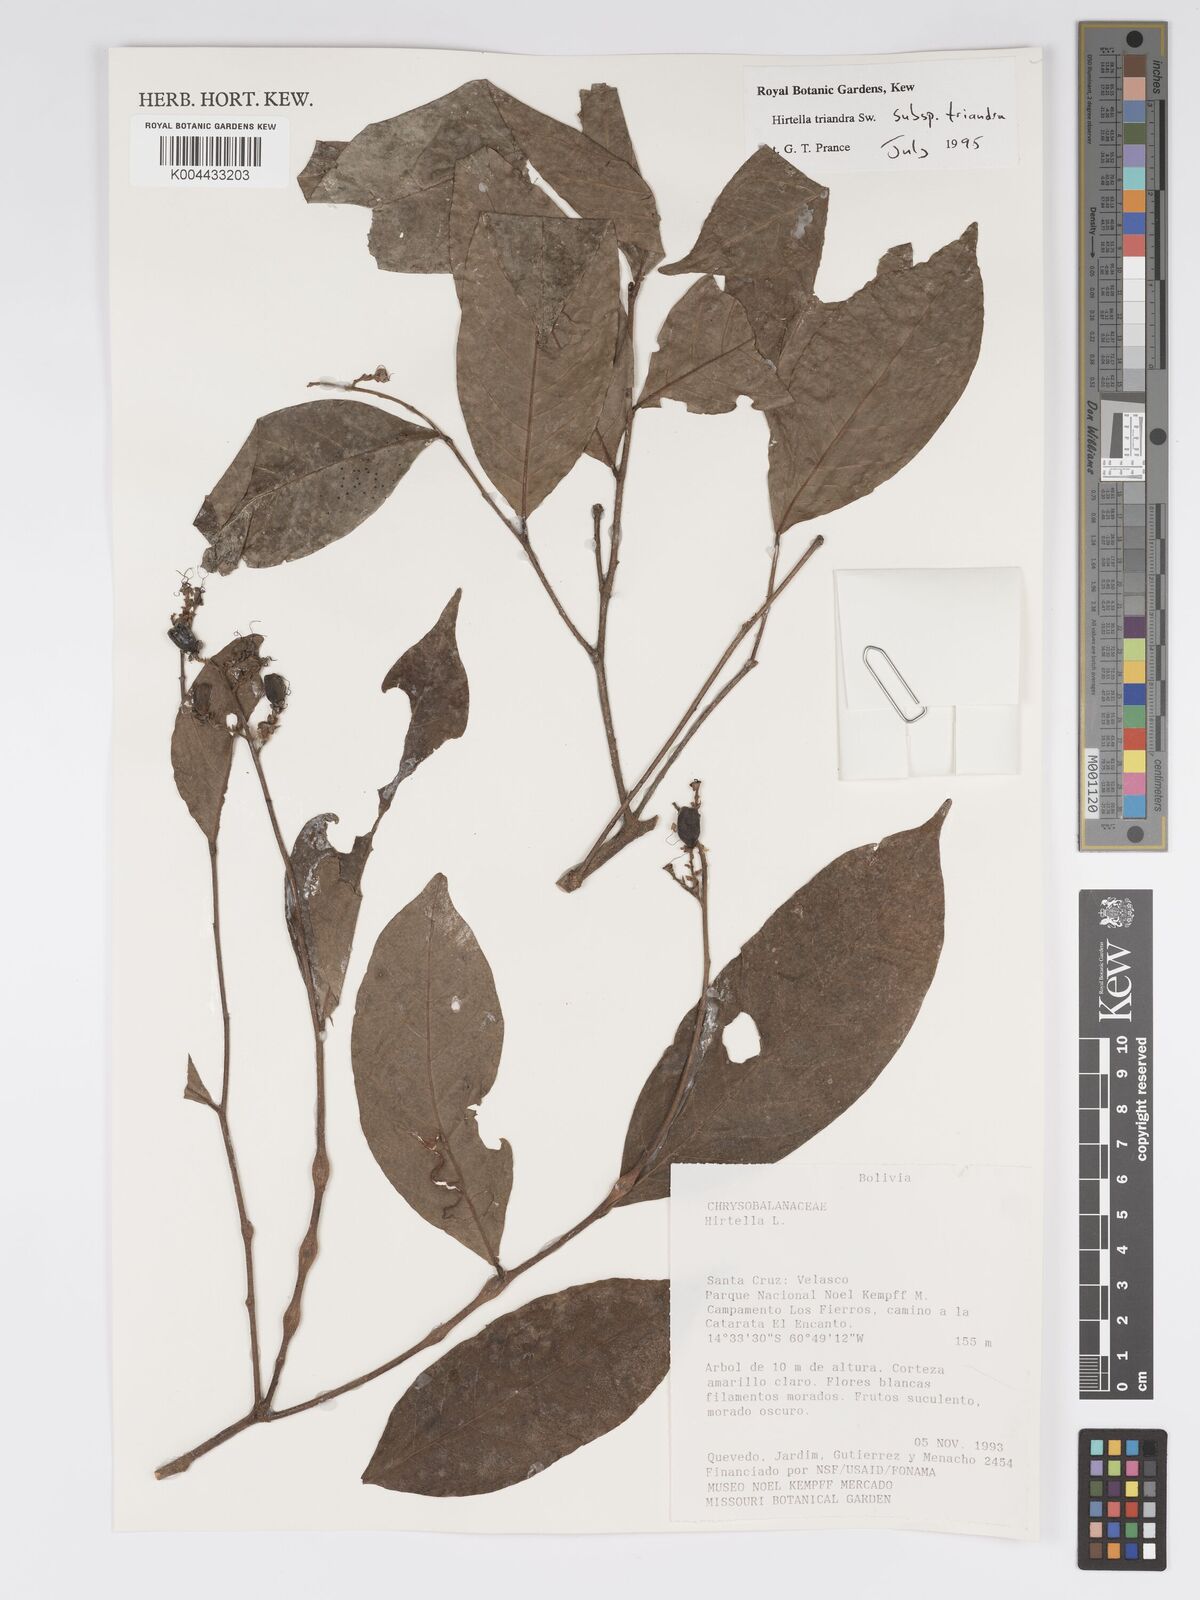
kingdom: Plantae
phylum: Tracheophyta
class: Magnoliopsida
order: Malpighiales
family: Chrysobalanaceae
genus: Hirtella
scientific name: Hirtella triandra
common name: Hairy plum
